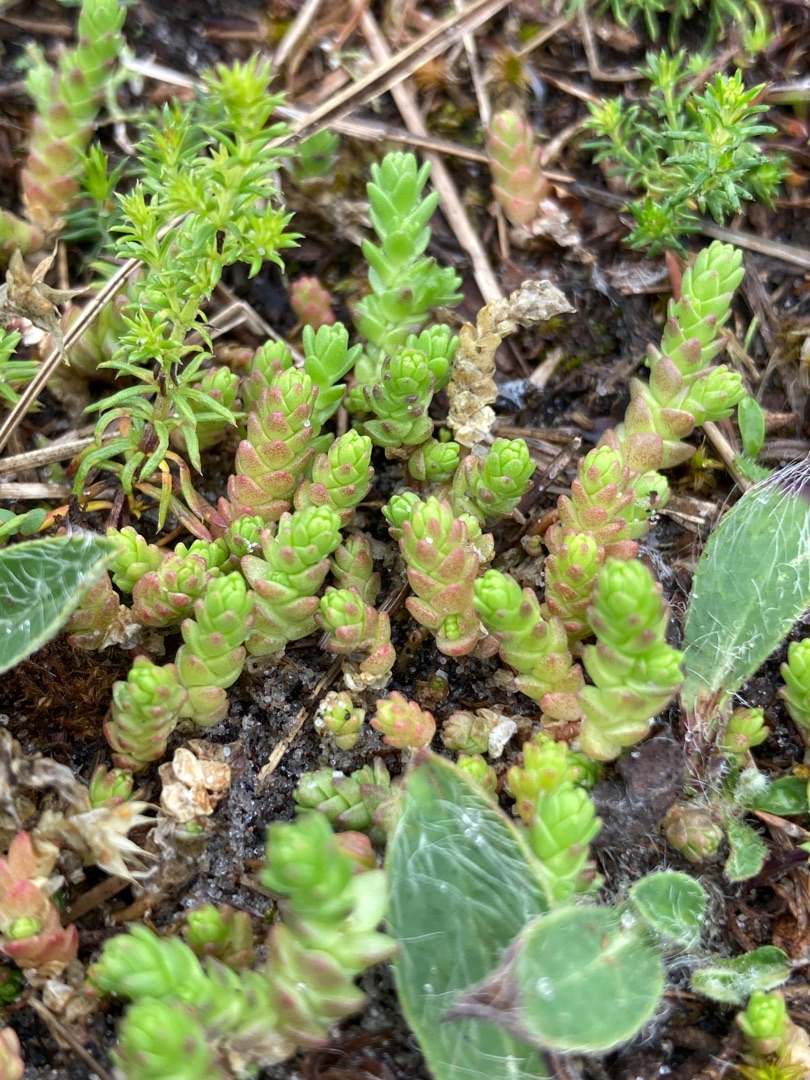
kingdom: Plantae
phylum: Tracheophyta
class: Magnoliopsida
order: Saxifragales
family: Crassulaceae
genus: Sedum
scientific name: Sedum acre
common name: Bidende stenurt
